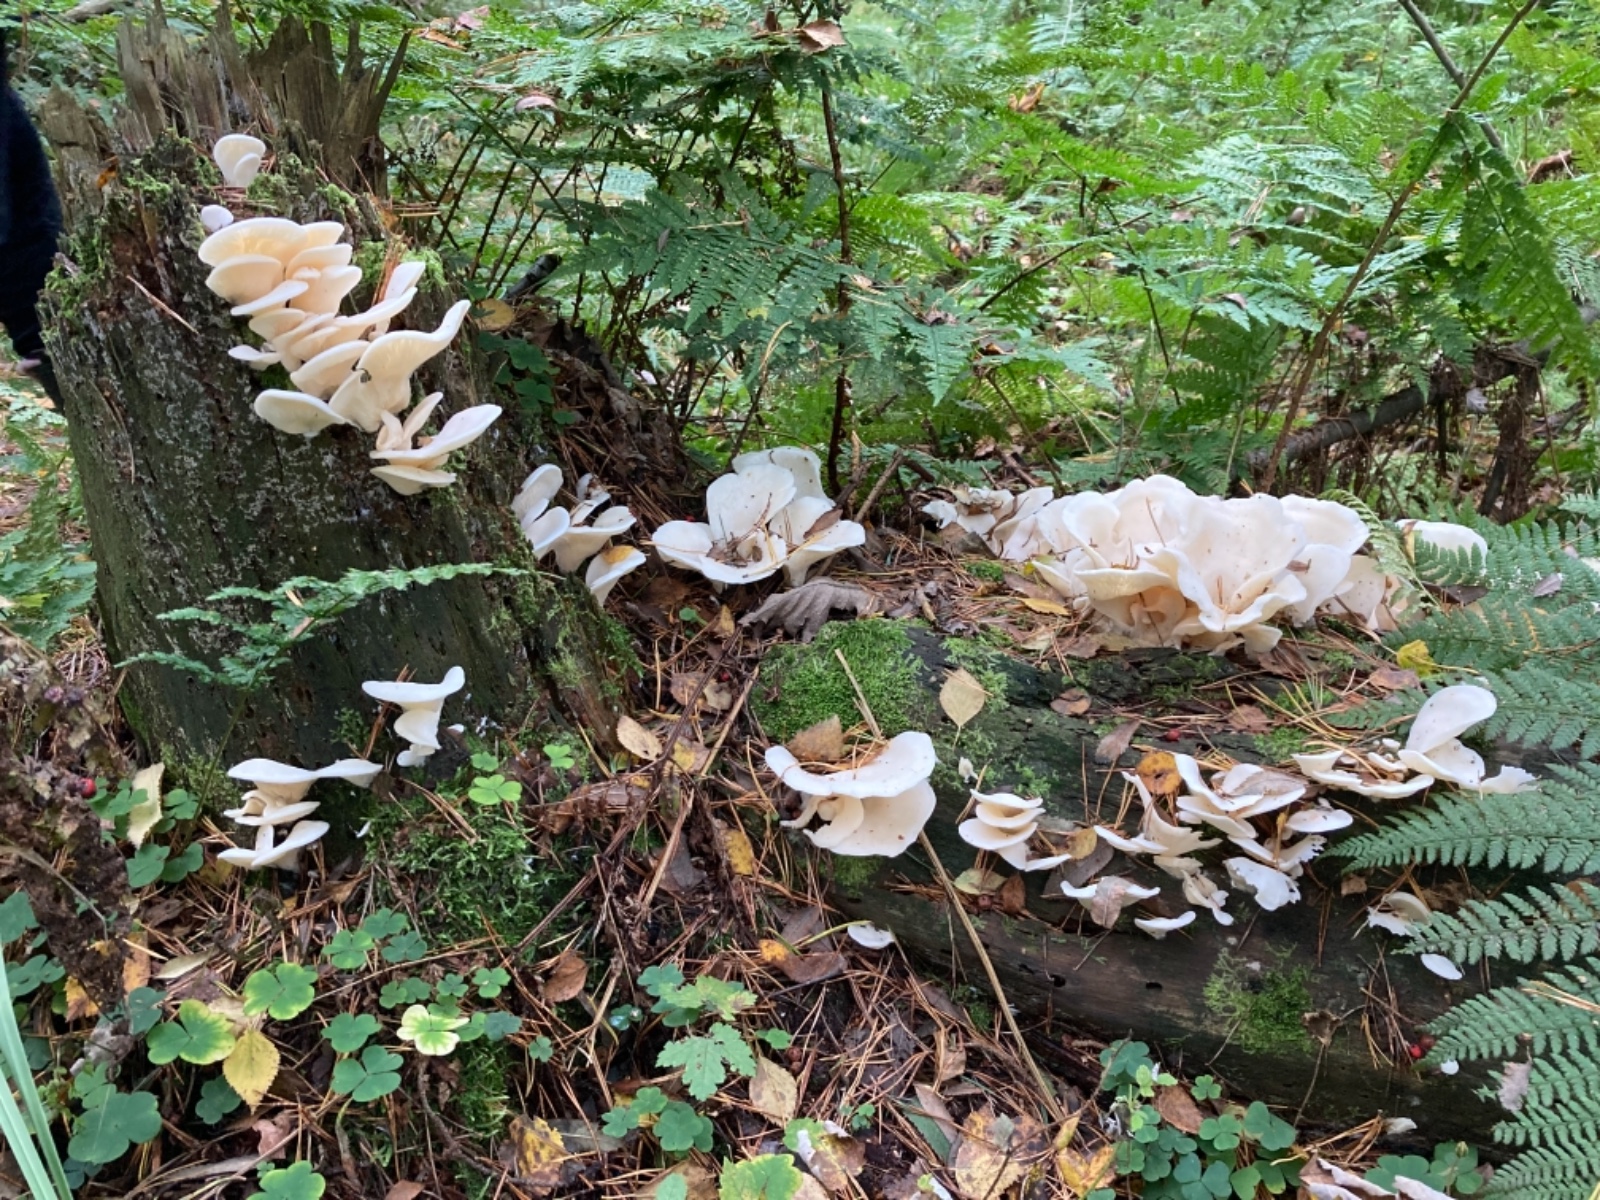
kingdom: Fungi
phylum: Basidiomycota
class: Agaricomycetes
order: Agaricales
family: Marasmiaceae
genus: Pleurocybella
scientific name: Pleurocybella porrigens
